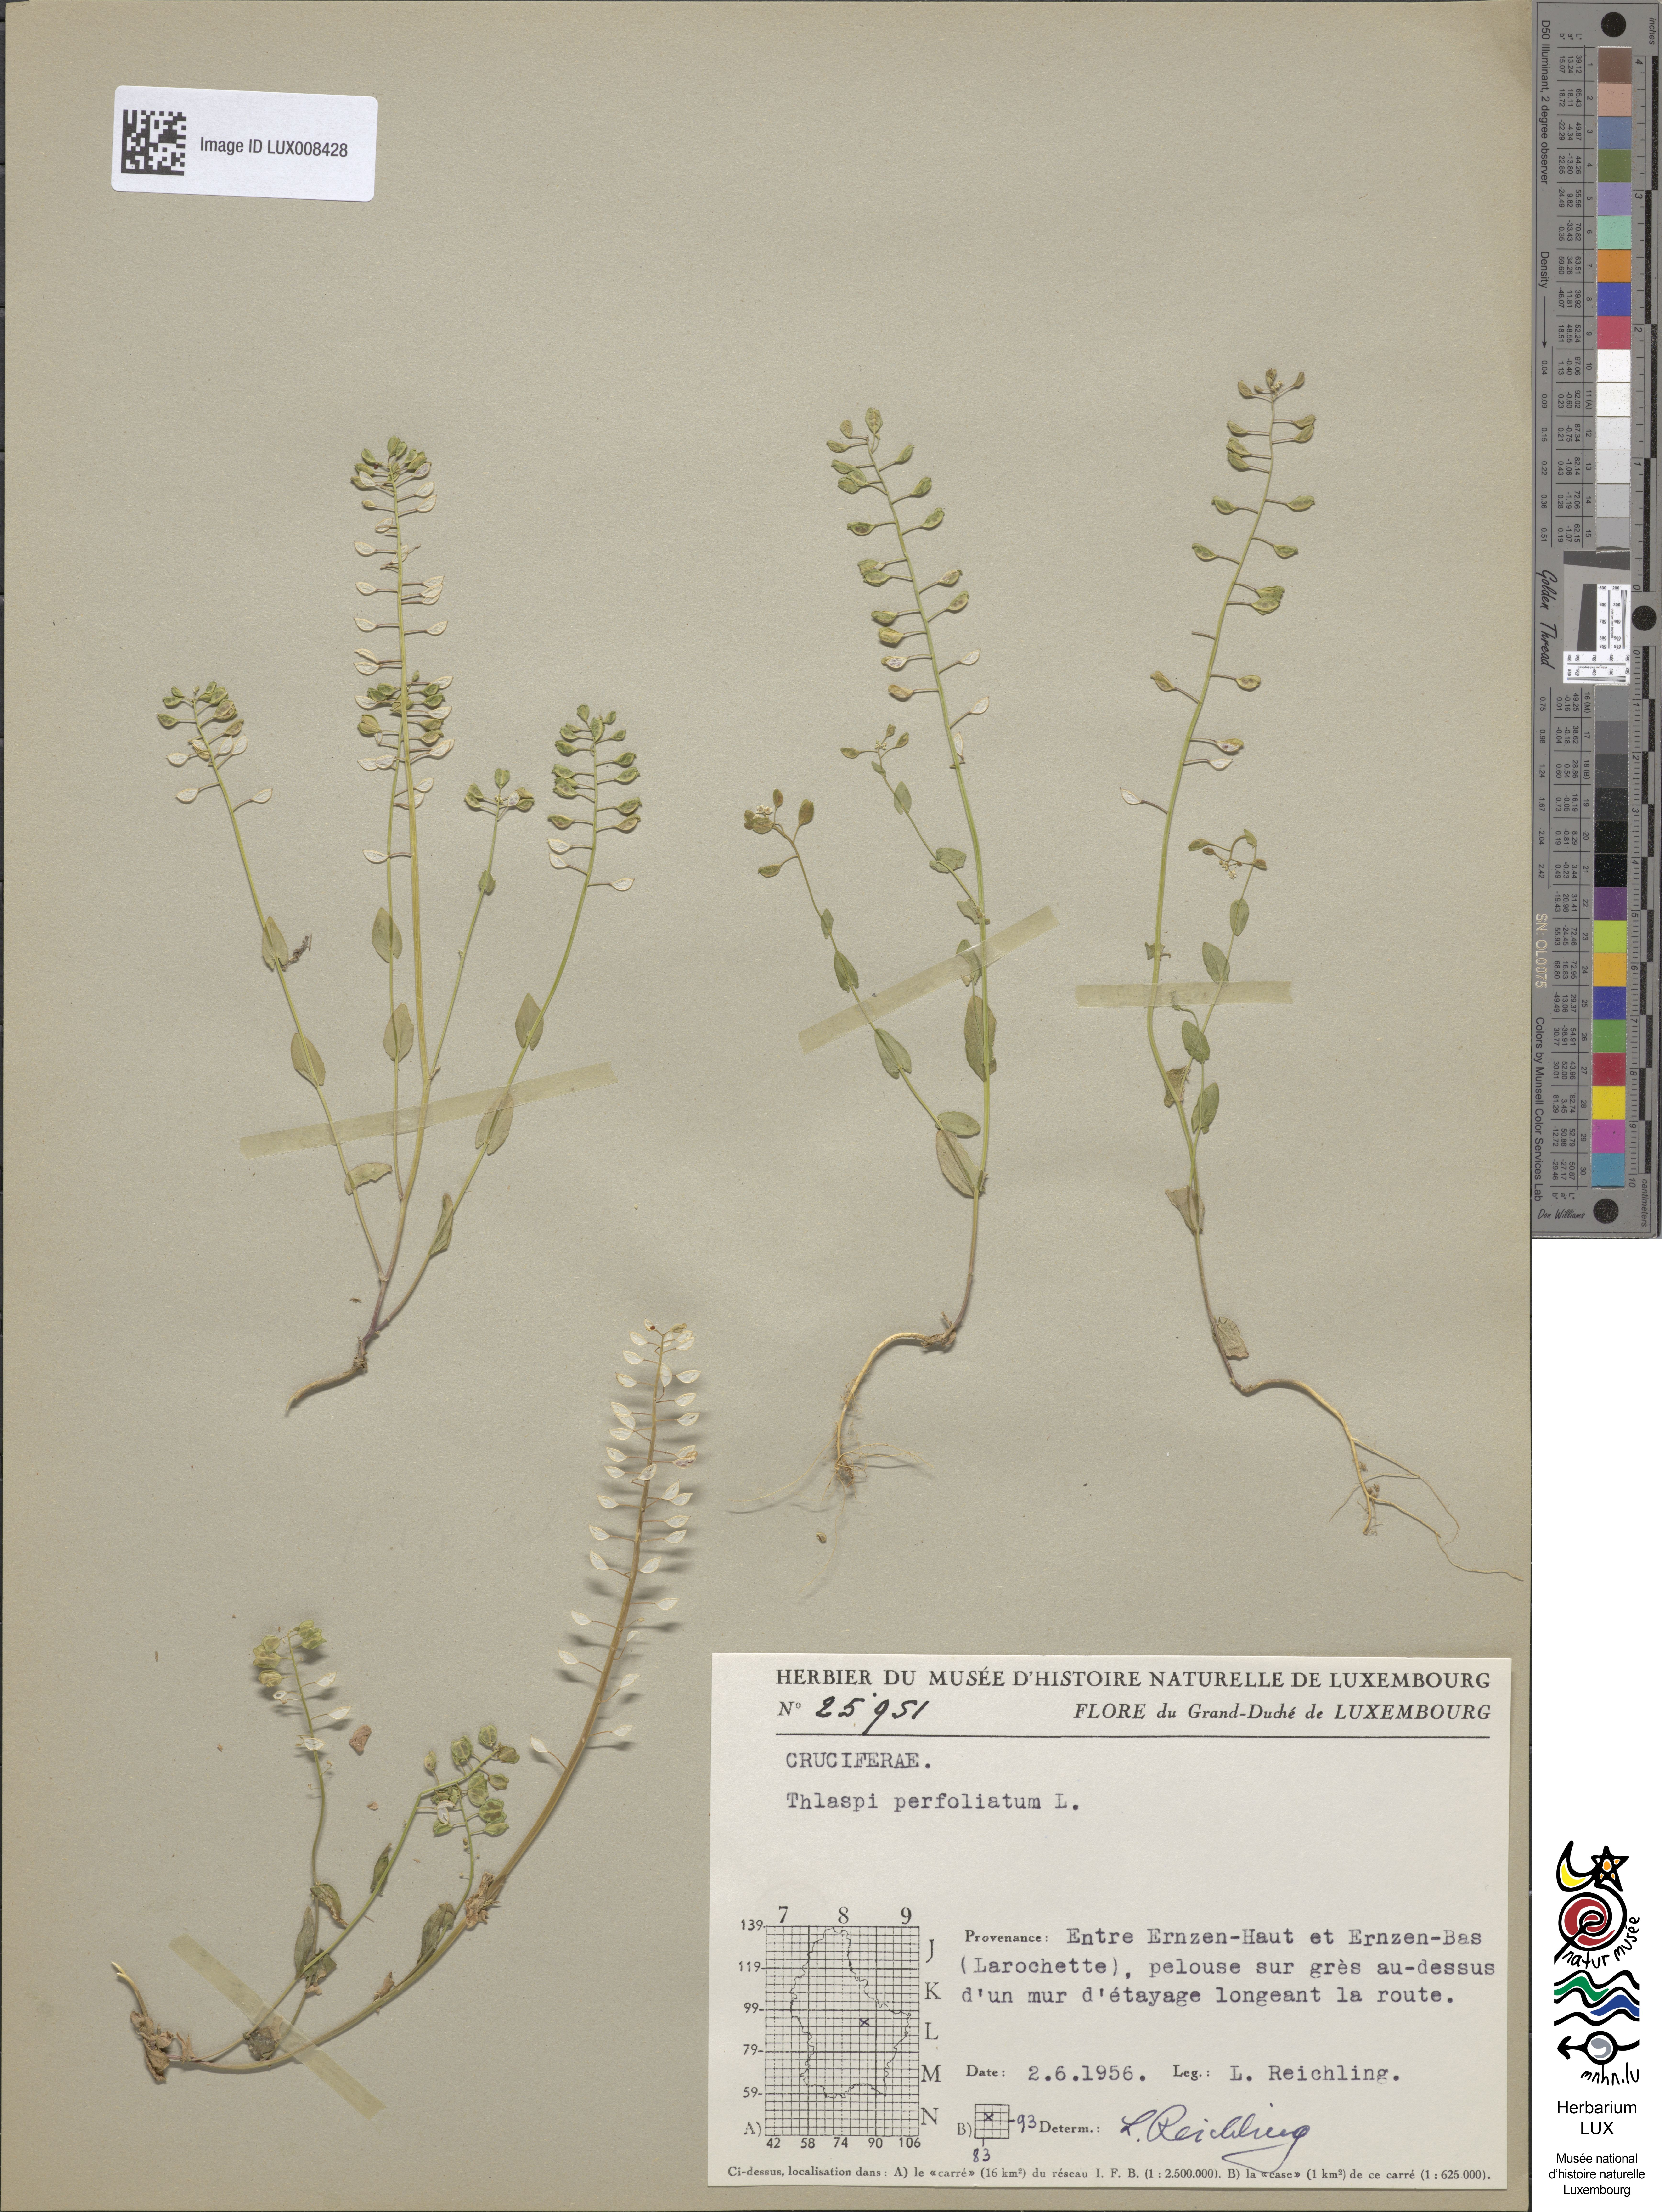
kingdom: Plantae
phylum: Tracheophyta
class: Magnoliopsida
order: Brassicales
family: Brassicaceae
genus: Noccaea
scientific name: Noccaea perfoliata
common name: Perfoliate pennycress
